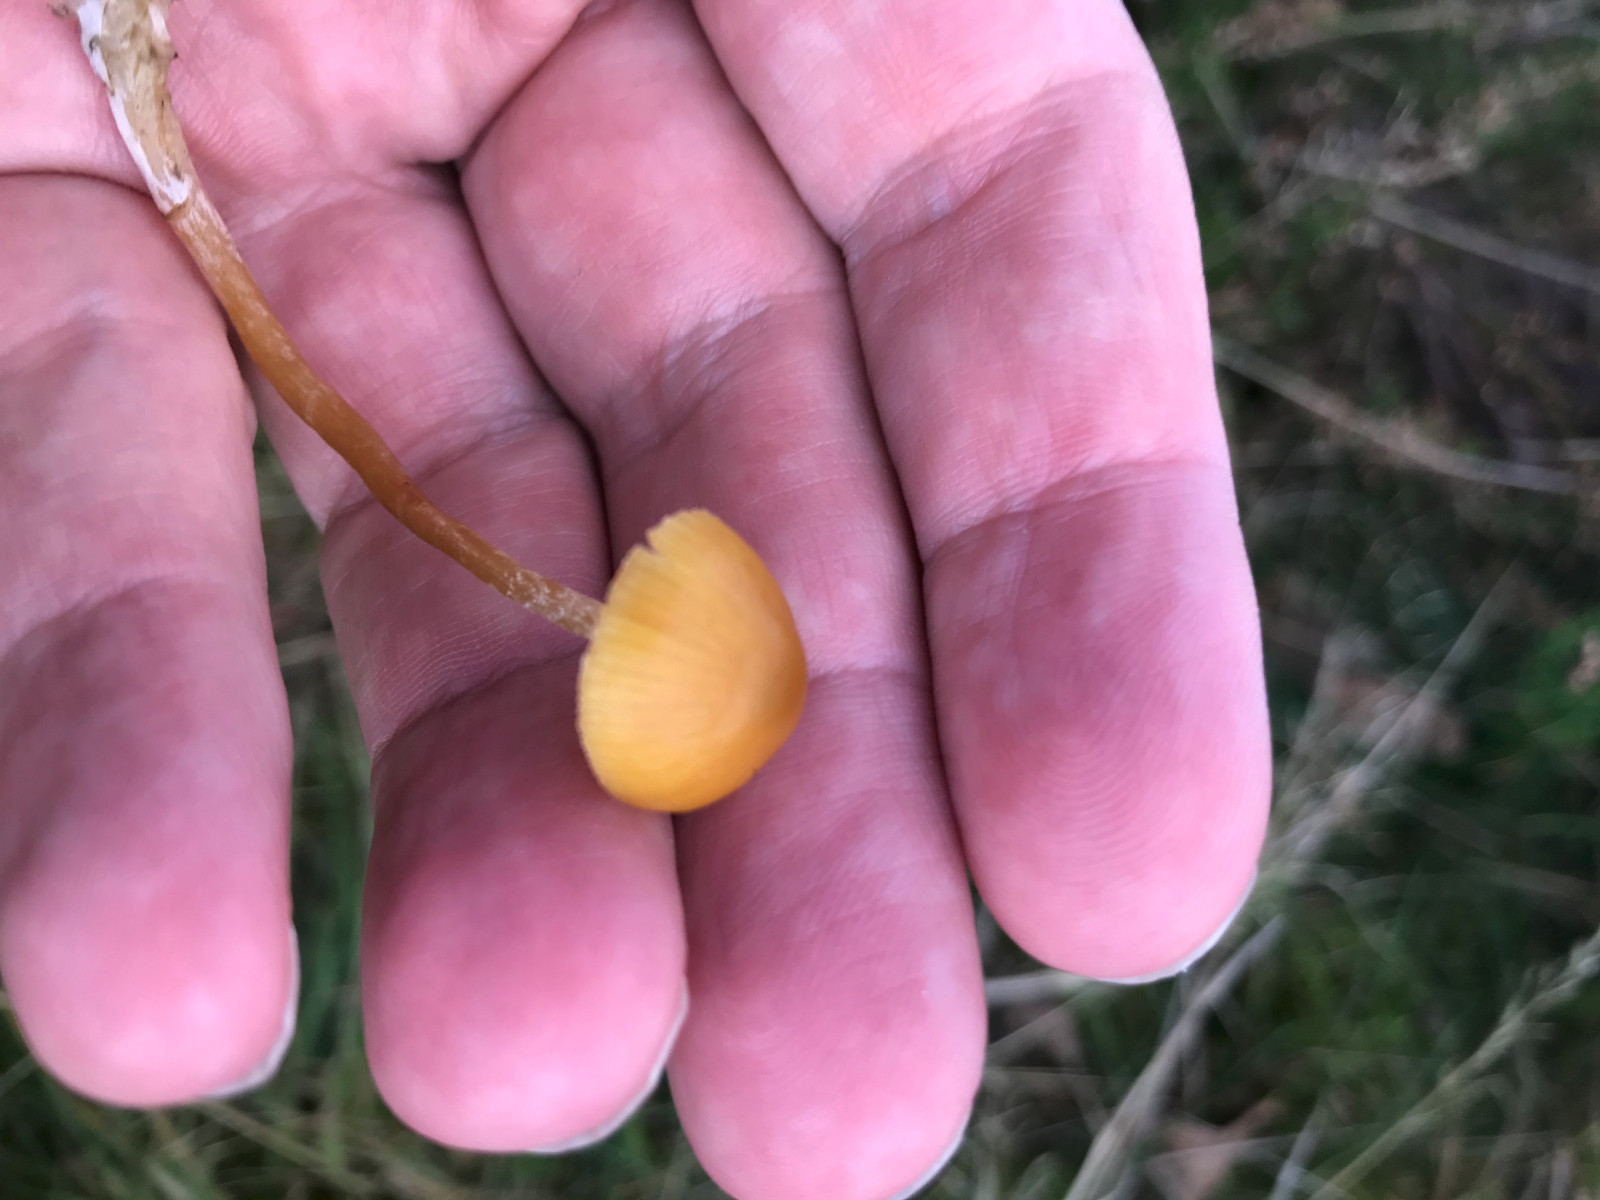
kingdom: Fungi
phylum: Basidiomycota
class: Agaricomycetes
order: Agaricales
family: Hymenogastraceae
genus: Galerina
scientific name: Galerina
